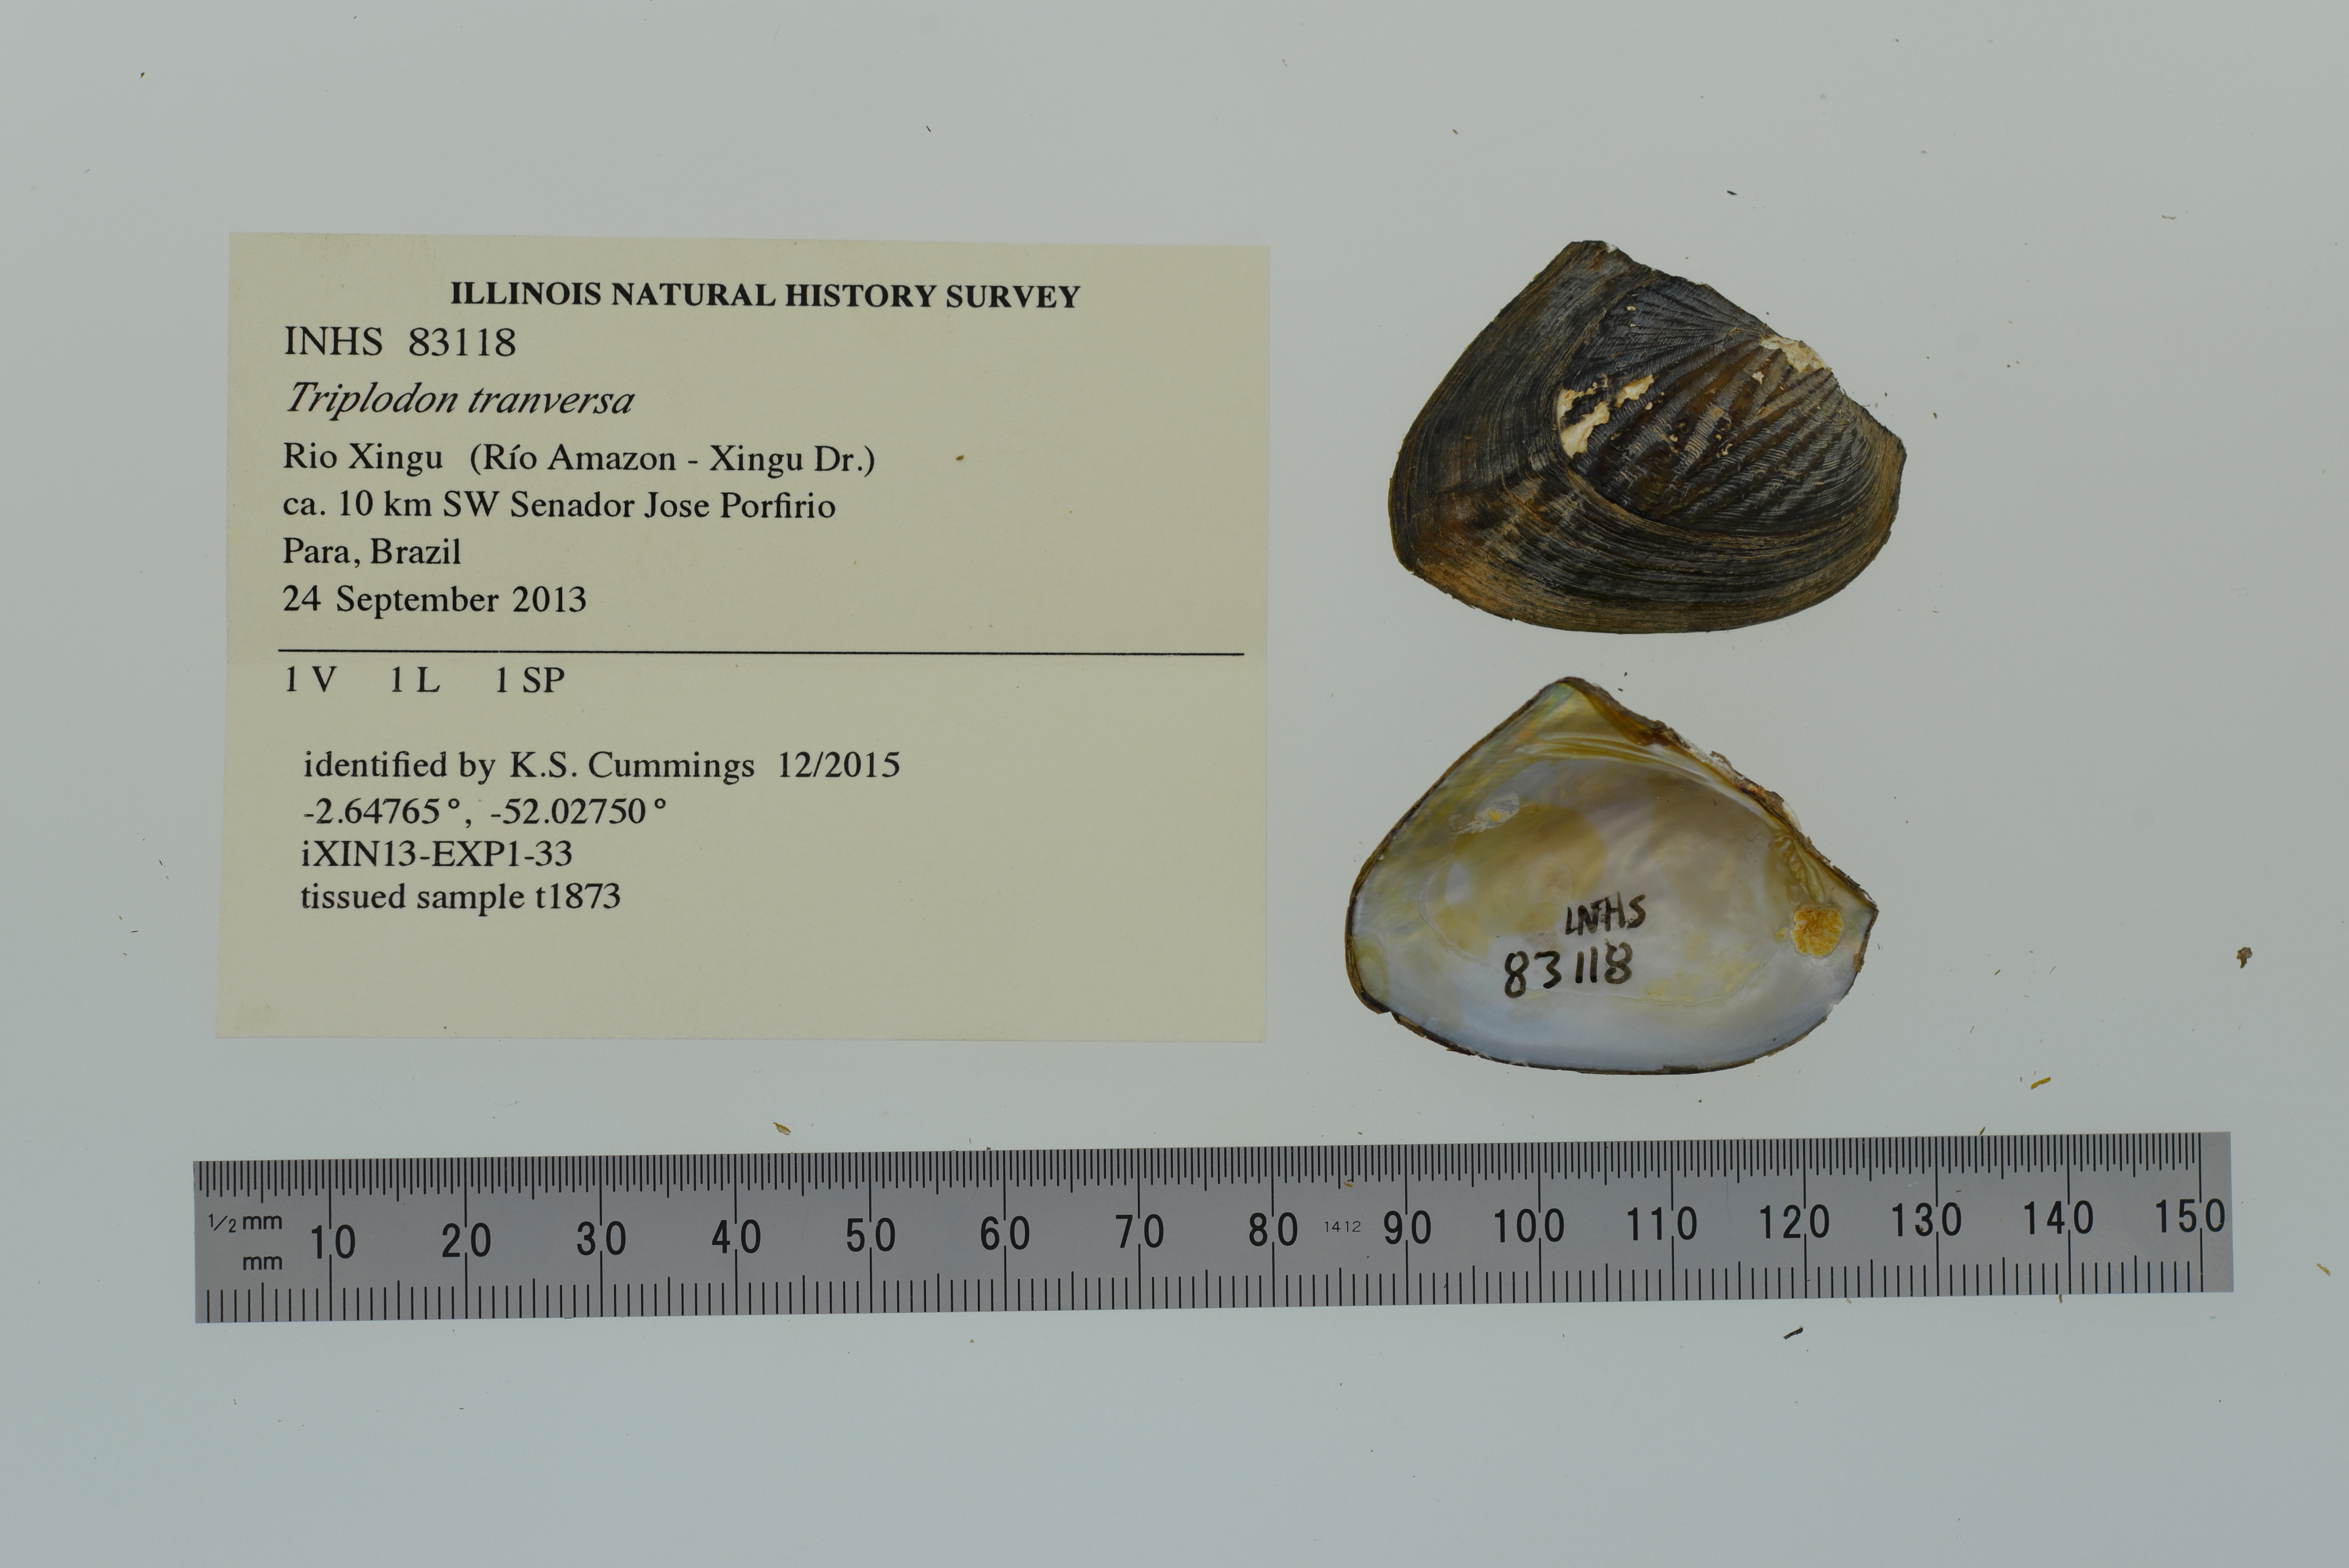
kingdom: Animalia
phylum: Mollusca
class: Bivalvia
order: Unionida
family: Hyriidae
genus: Triplodon
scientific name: Triplodon
